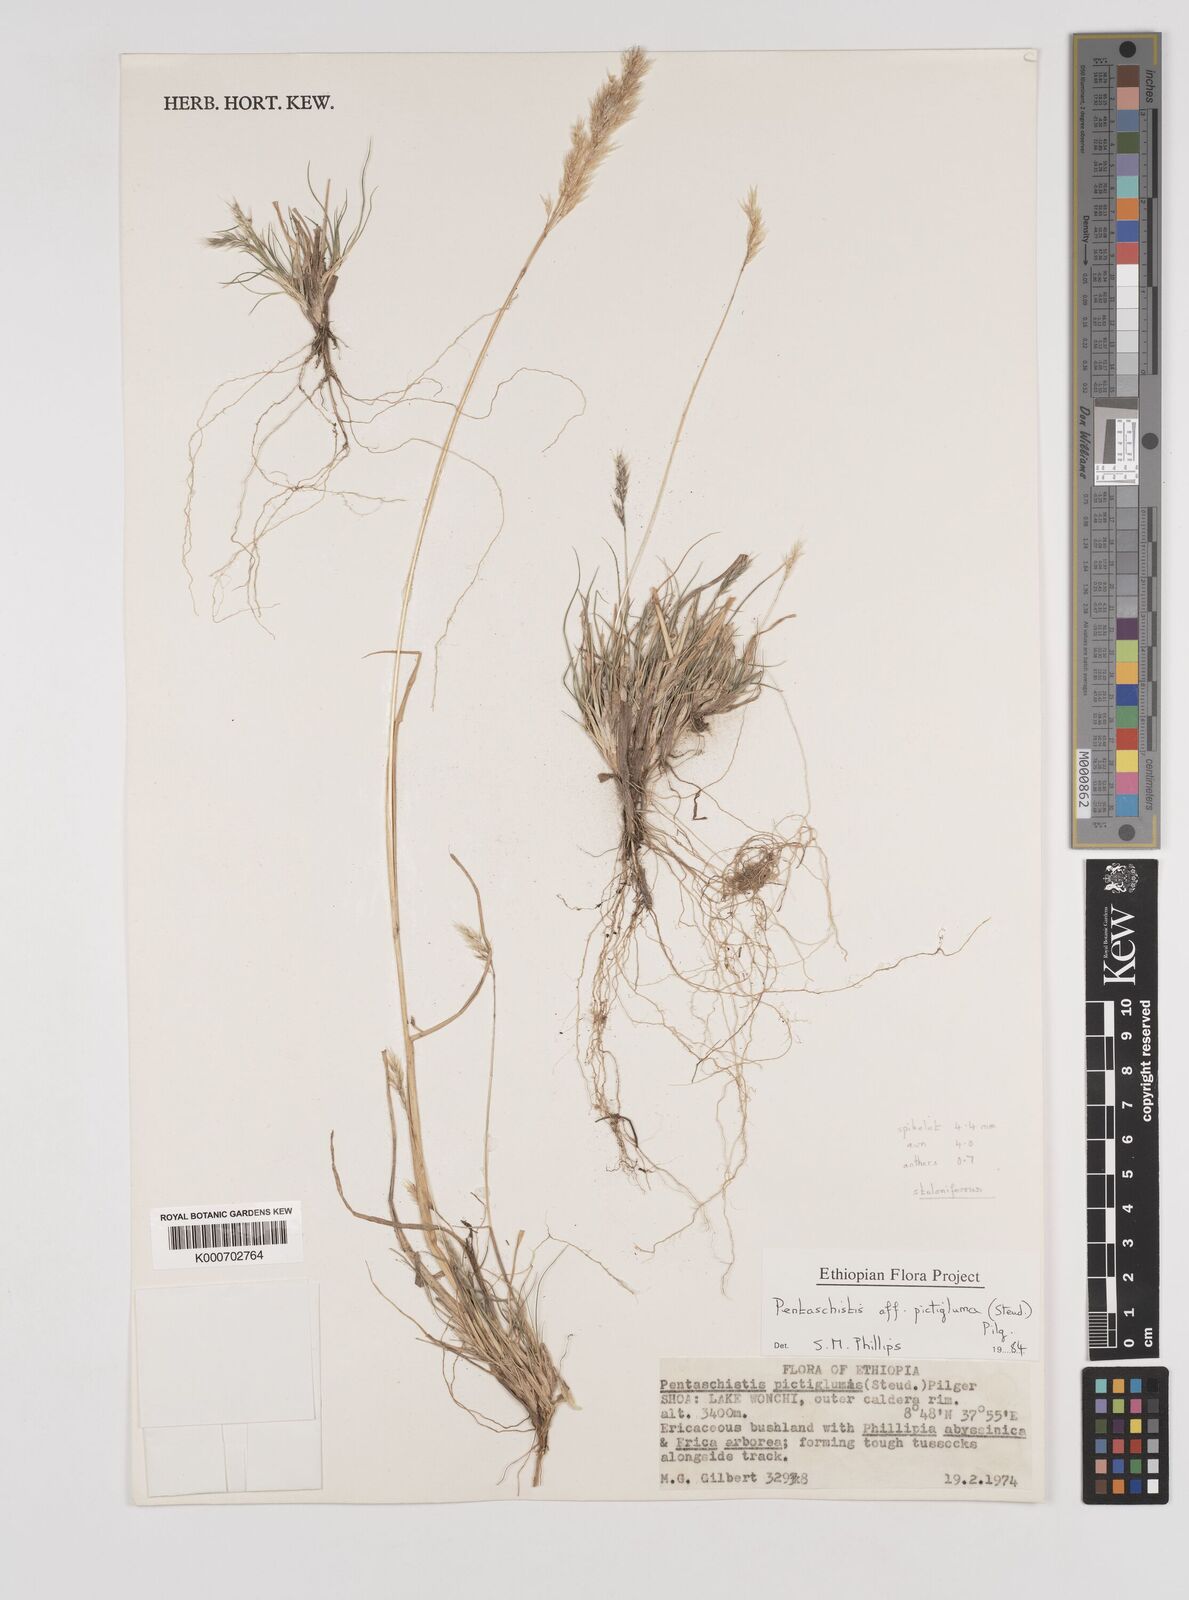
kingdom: Plantae
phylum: Tracheophyta
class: Liliopsida
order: Poales
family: Poaceae
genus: Pentameris
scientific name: Pentameris pictigluma
